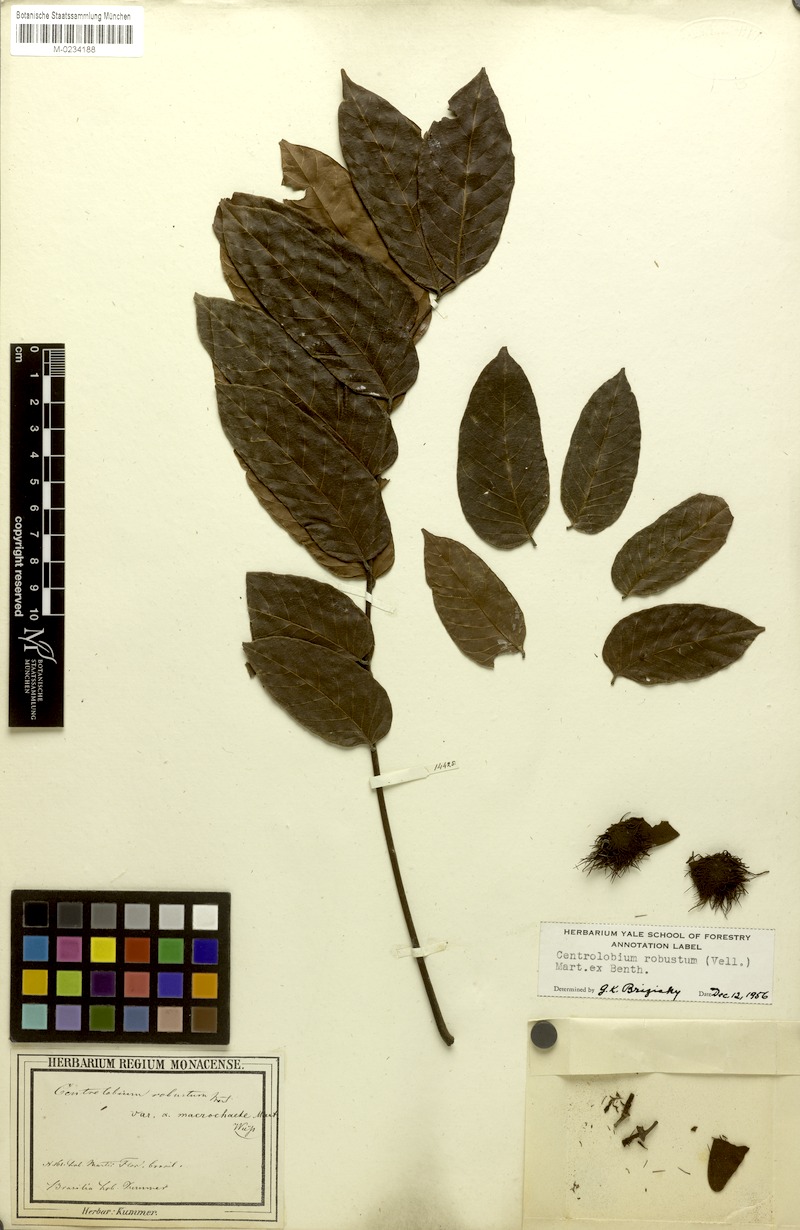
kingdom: Plantae
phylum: Tracheophyta
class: Magnoliopsida
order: Fabales
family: Fabaceae
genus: Centrolobium
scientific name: Centrolobium robustum
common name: Zebrawood
